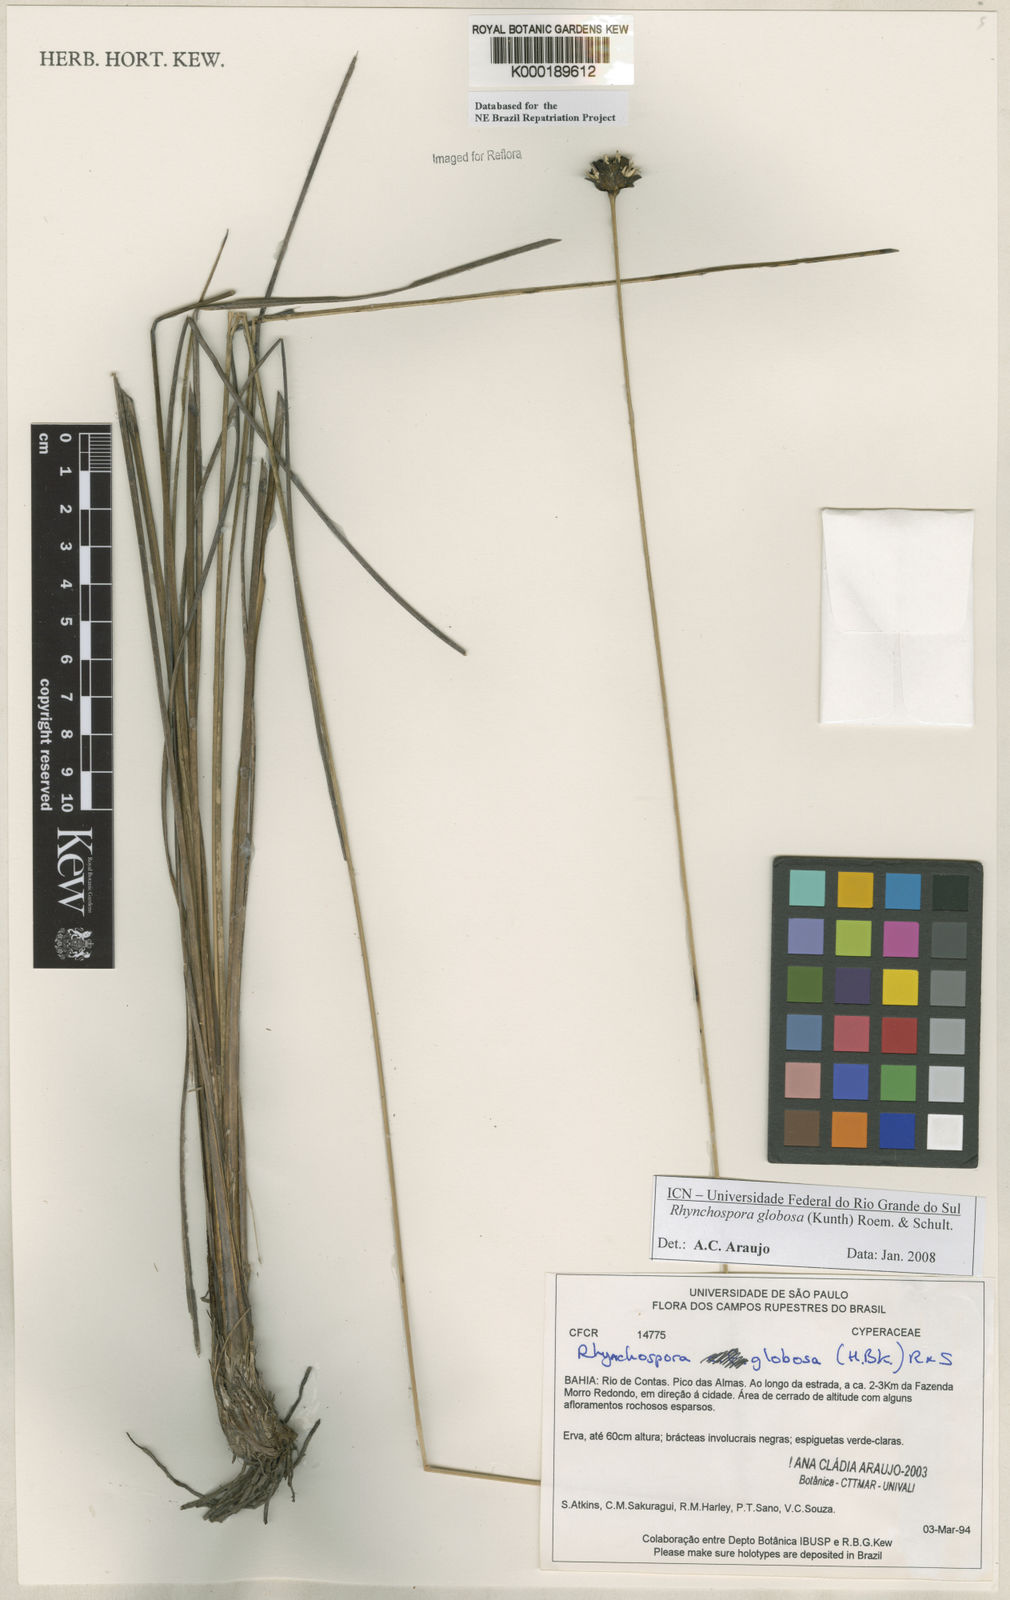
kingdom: Plantae
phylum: Tracheophyta
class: Liliopsida
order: Poales
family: Cyperaceae
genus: Rhynchospora
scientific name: Rhynchospora globosa
